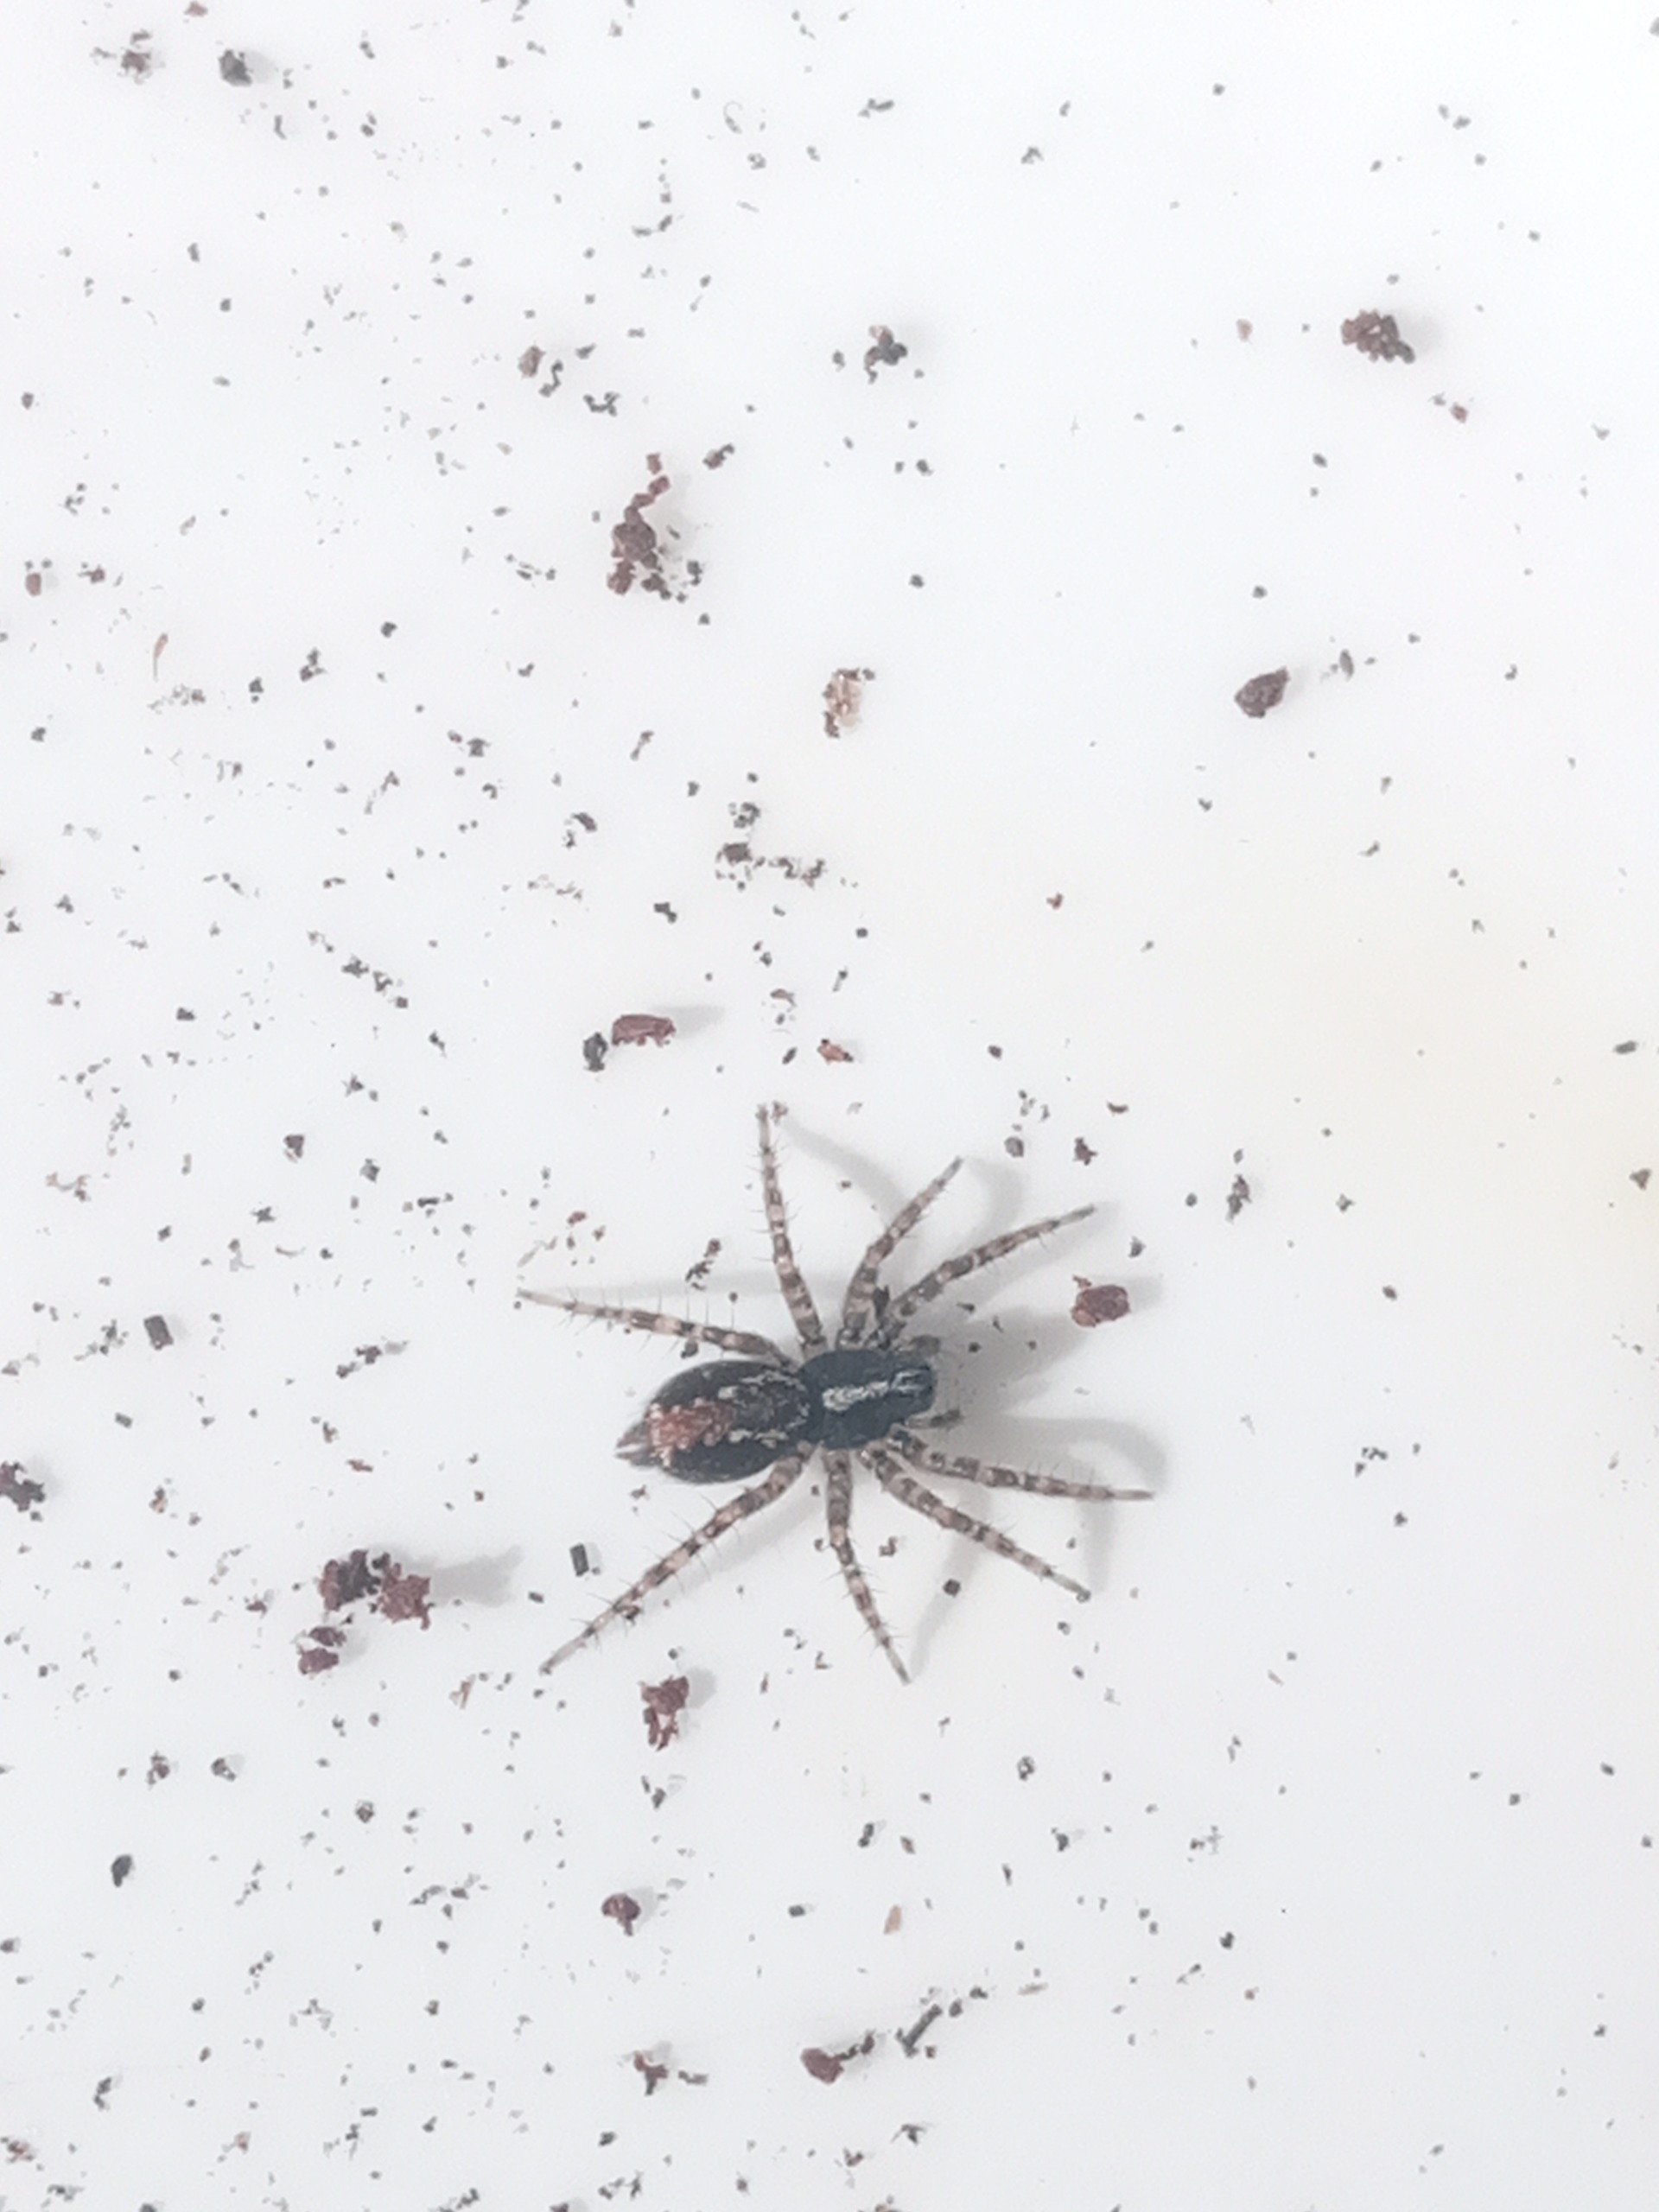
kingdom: Animalia
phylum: Arthropoda
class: Arachnida
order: Araneae
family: Agelenidae
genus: Textrix
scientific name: Textrix denticulata
